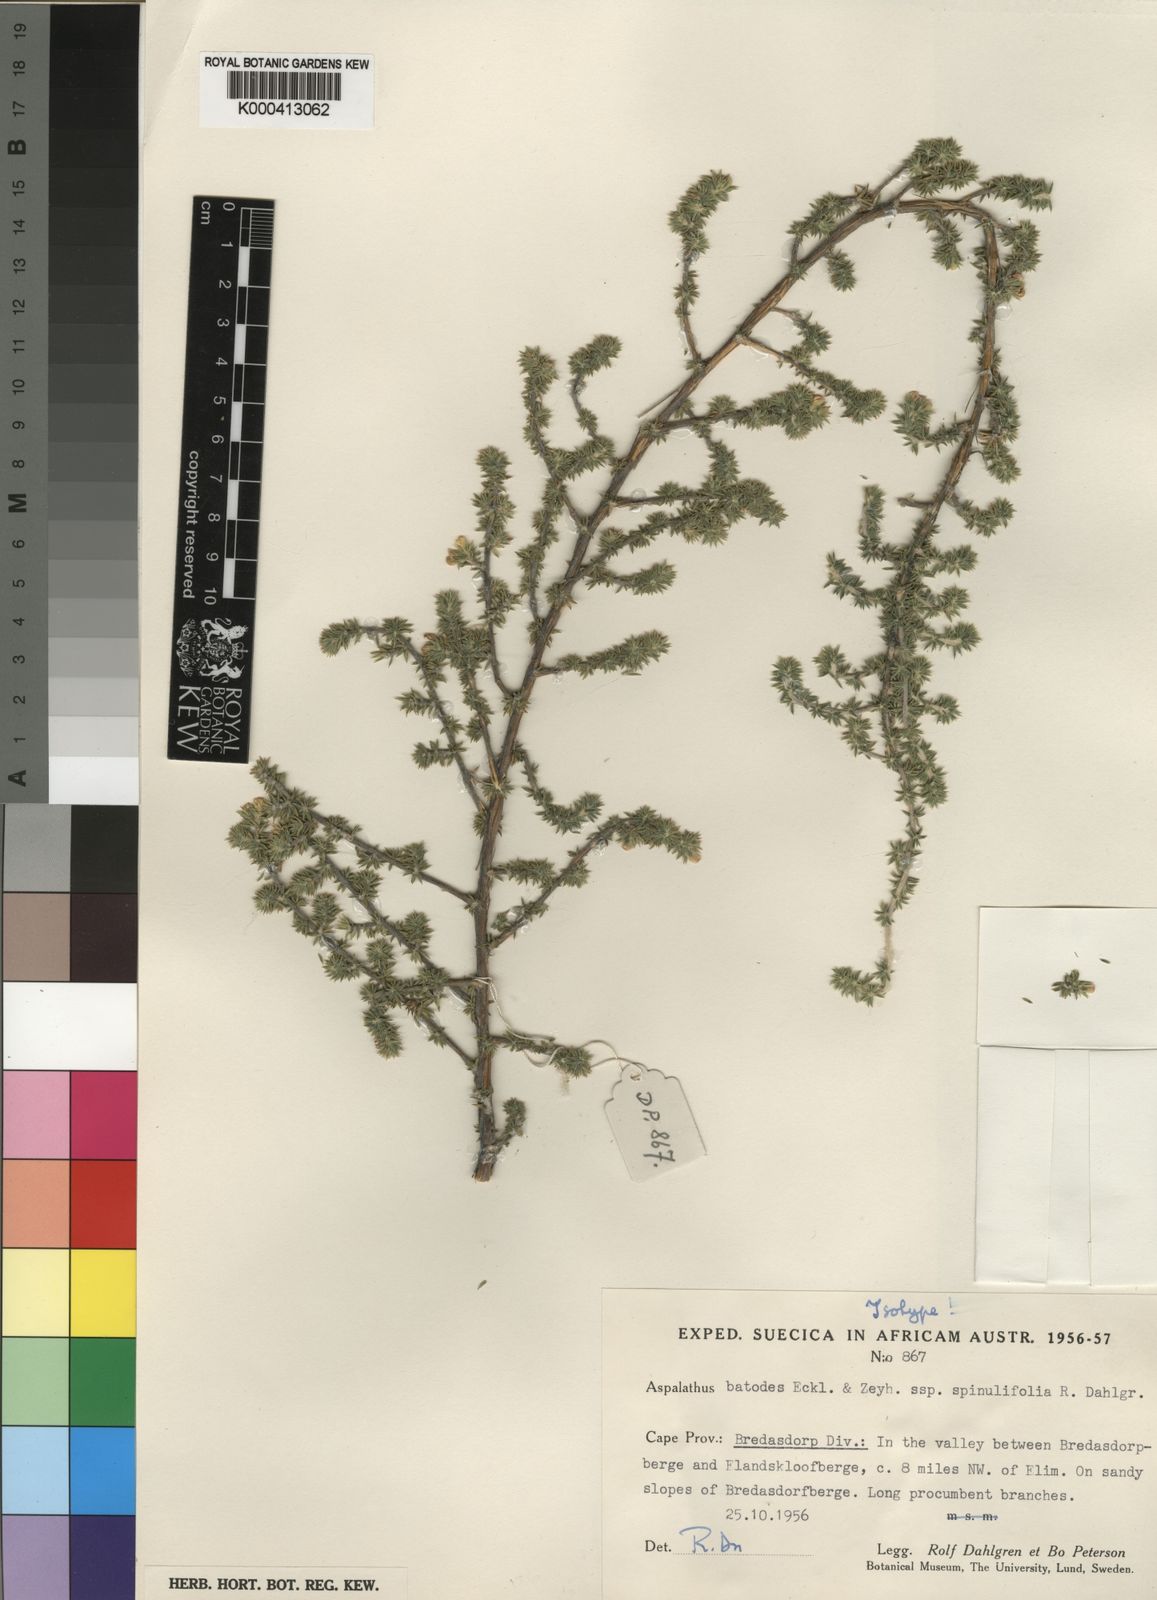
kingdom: Plantae
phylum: Tracheophyta
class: Magnoliopsida
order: Fabales
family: Fabaceae
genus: Aspalathus
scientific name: Aspalathus batodes
